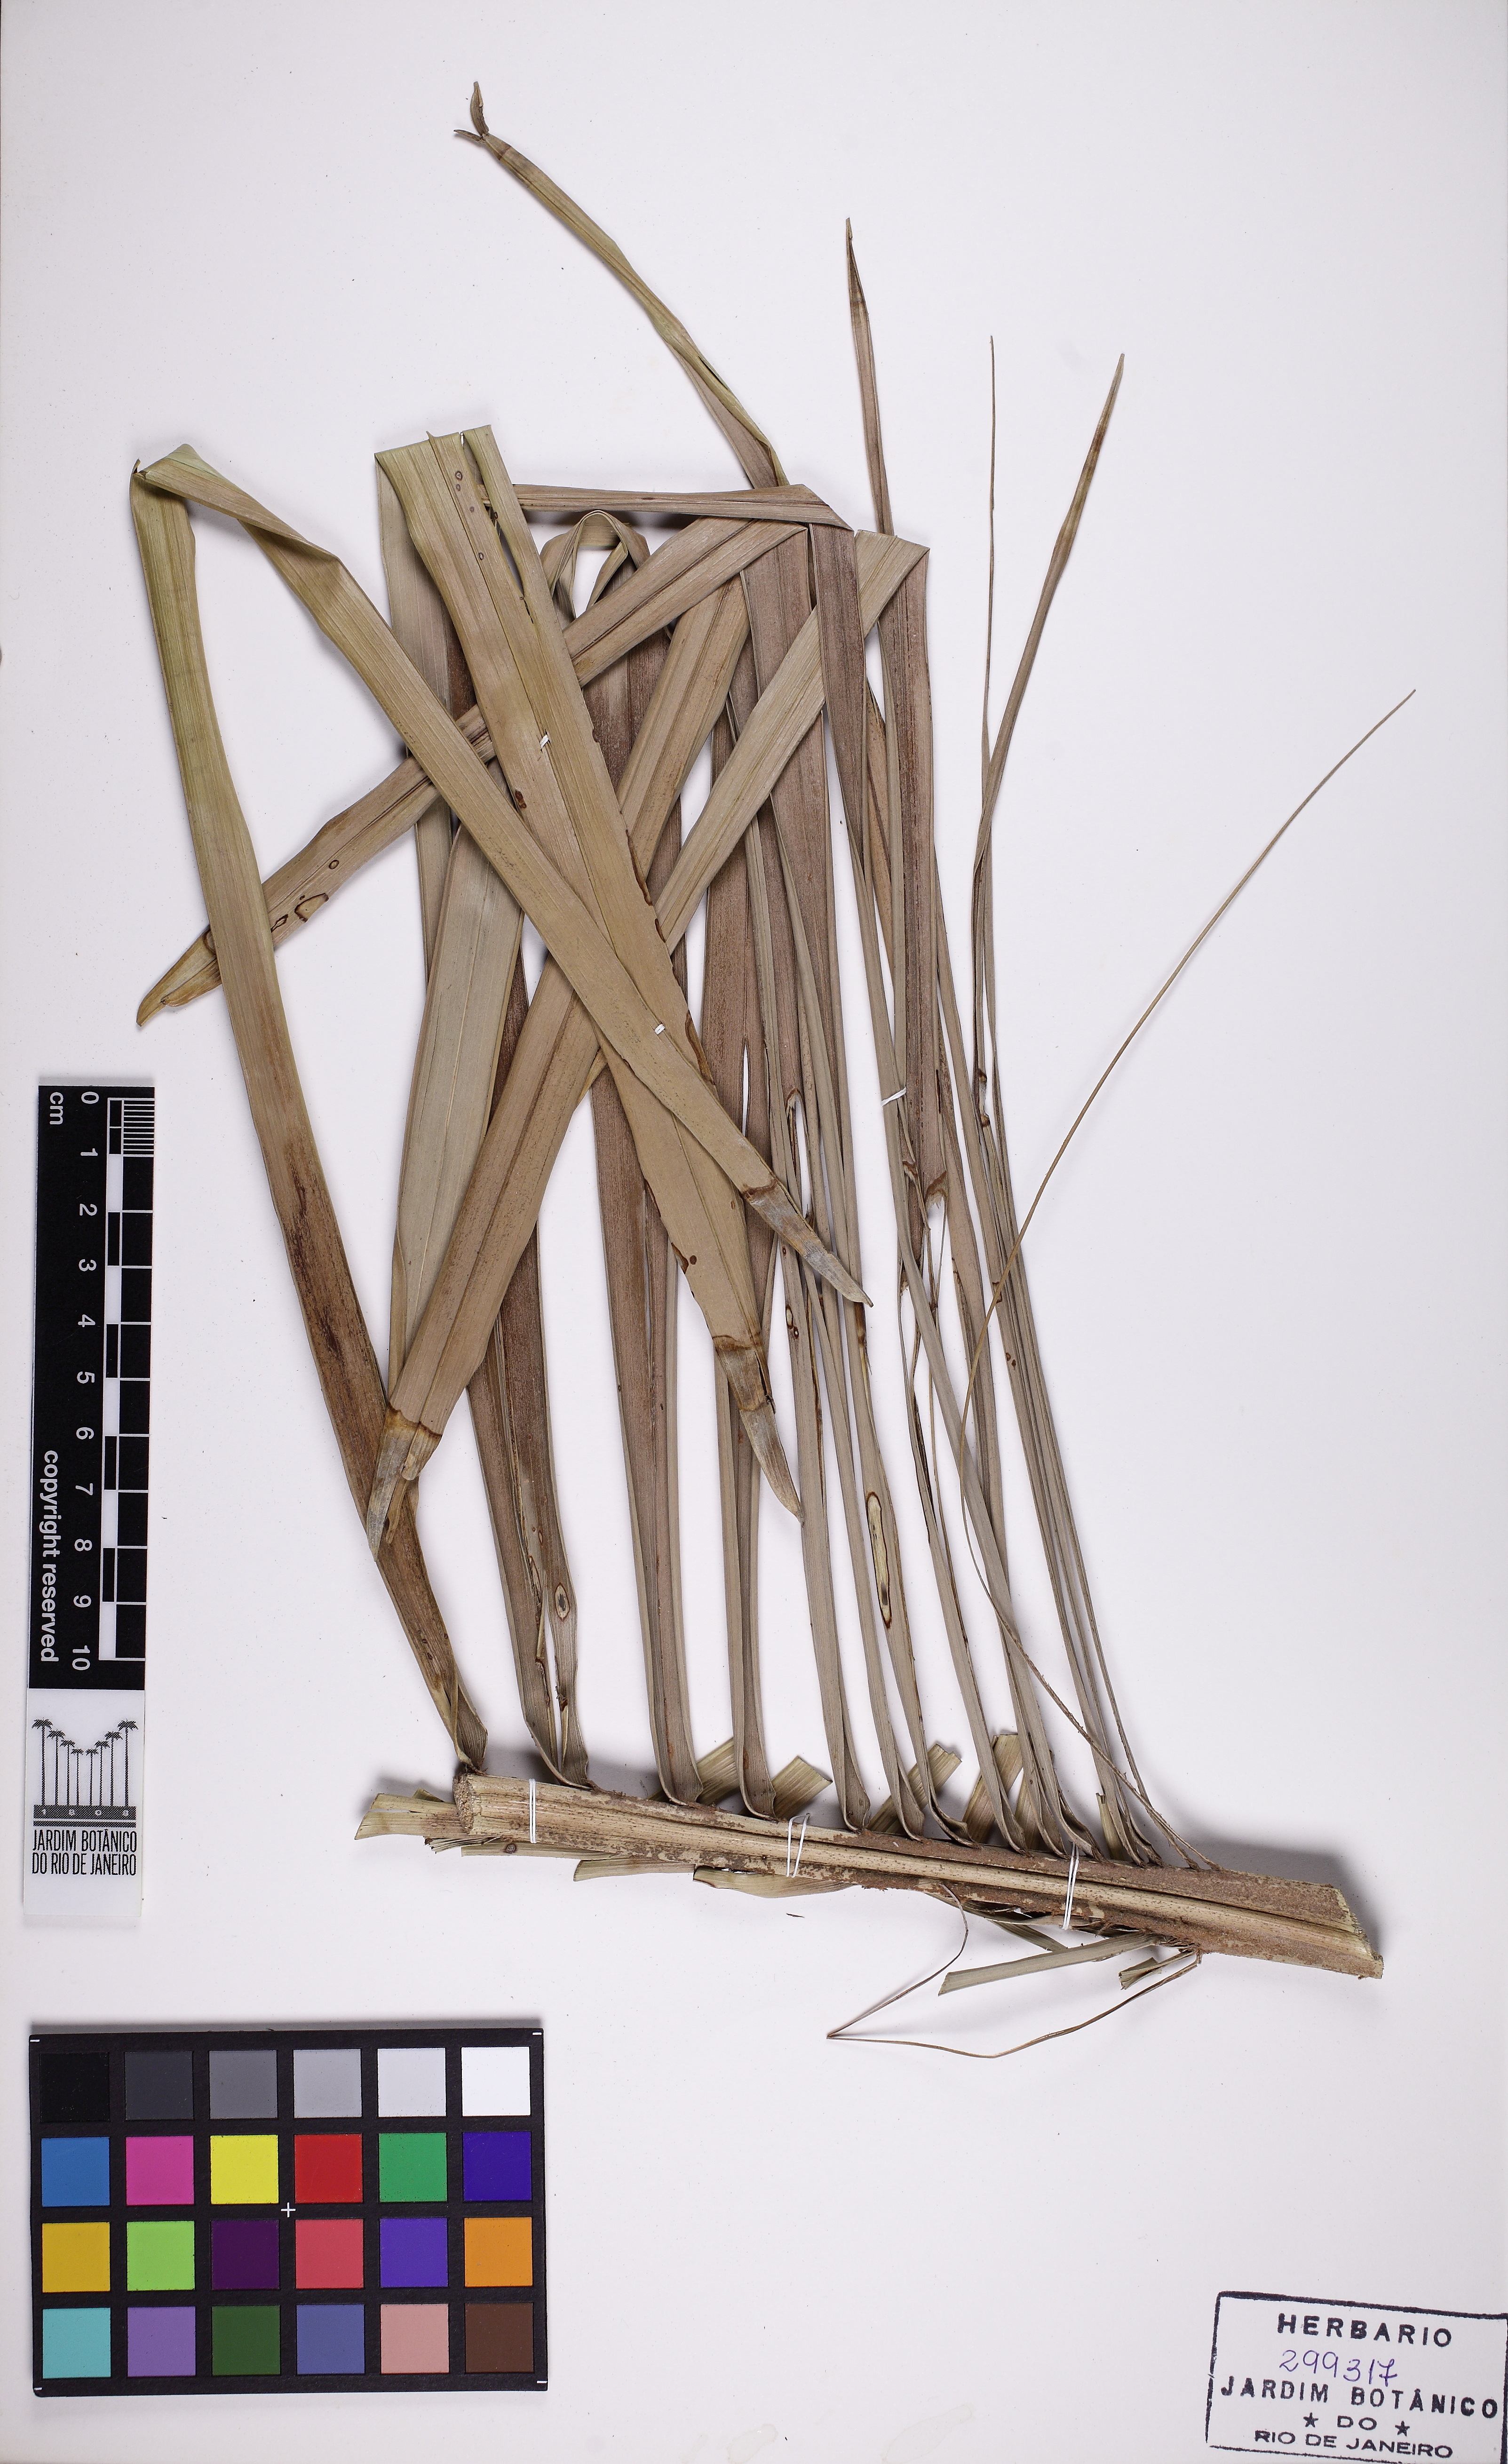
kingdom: Plantae
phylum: Tracheophyta
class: Liliopsida
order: Arecales
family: Arecaceae
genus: Syagrus
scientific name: Syagrus schizophylla
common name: Arikury palm
